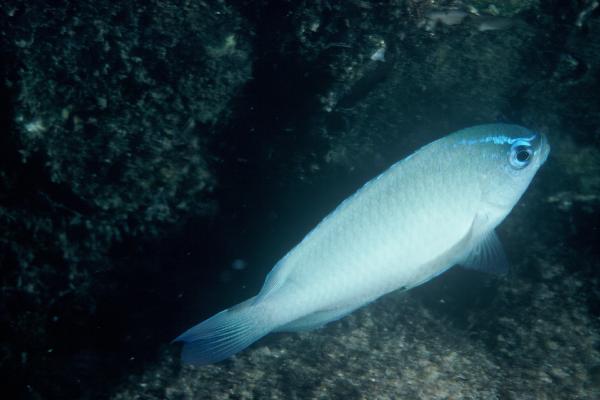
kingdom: Animalia
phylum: Chordata
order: Perciformes
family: Pomacentridae
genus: Chrysiptera
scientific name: Chrysiptera glauca
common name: Grey demoiselle
